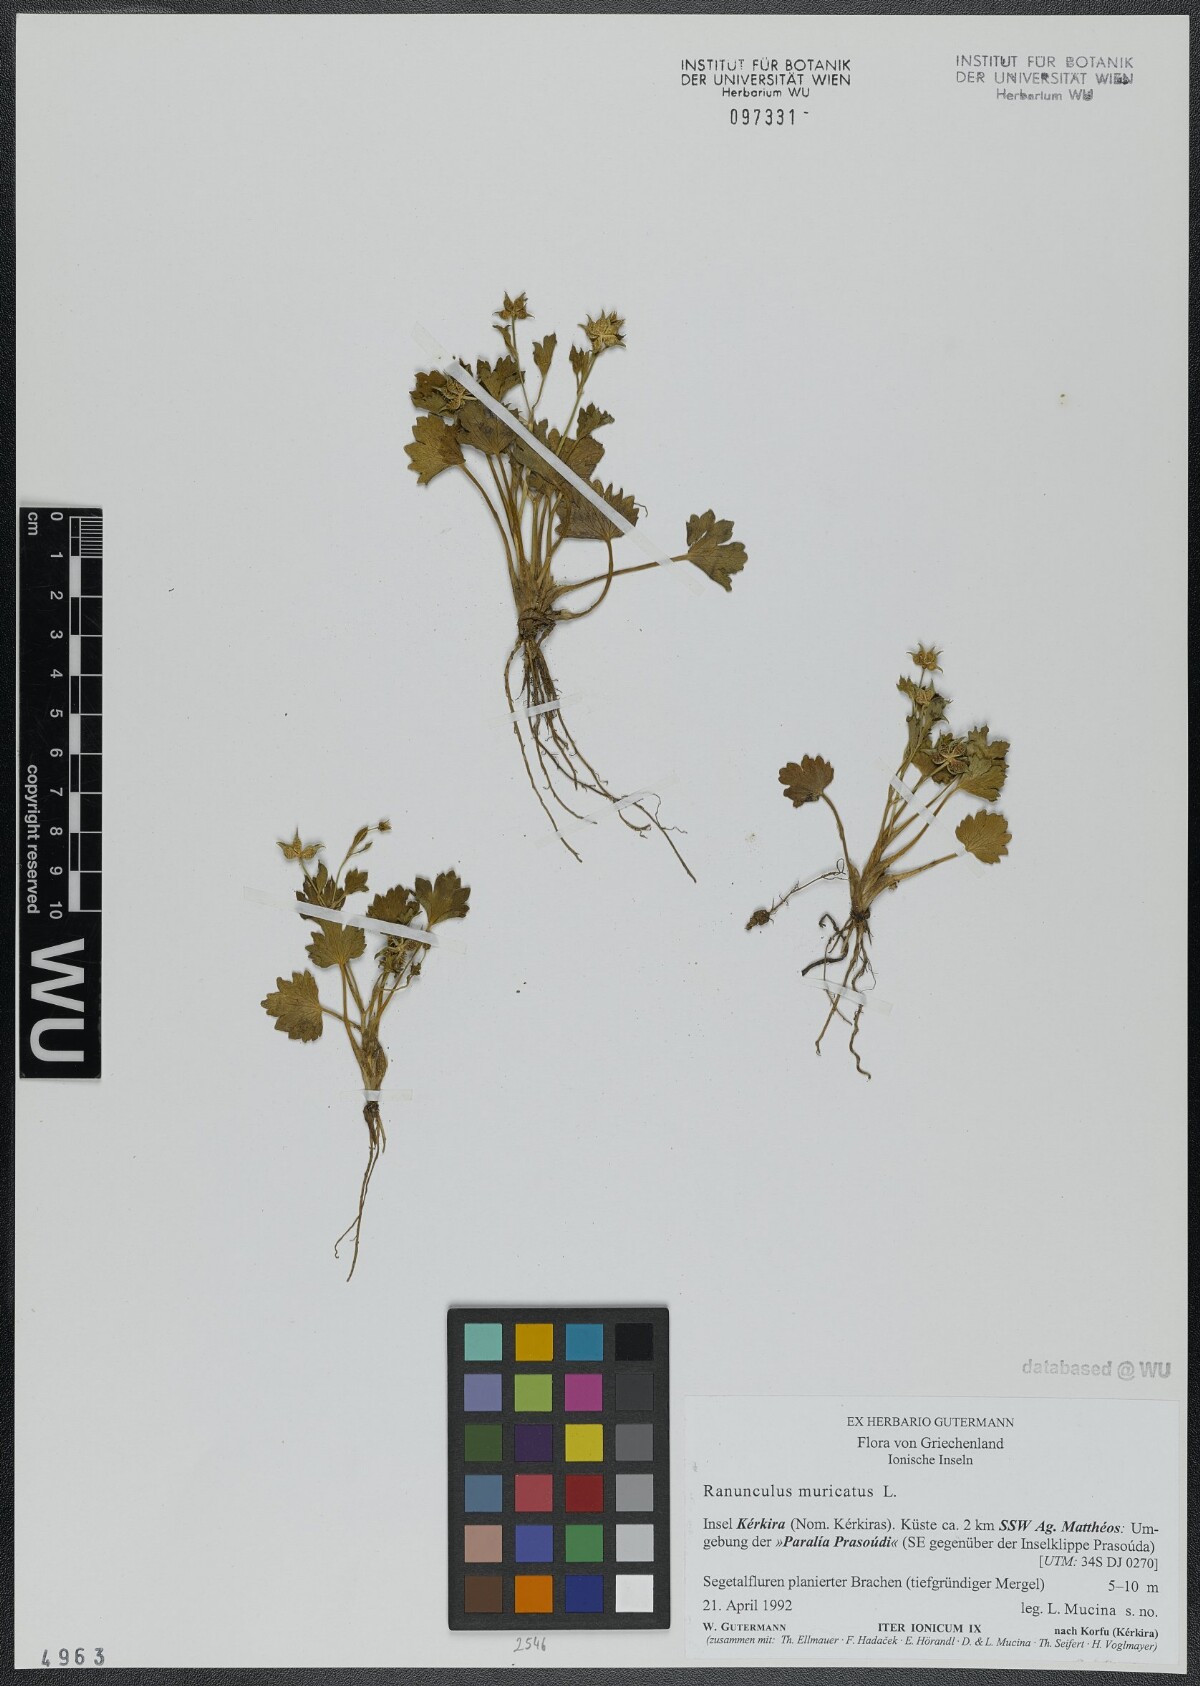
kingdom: Plantae
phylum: Tracheophyta
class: Magnoliopsida
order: Ranunculales
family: Ranunculaceae
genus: Ranunculus
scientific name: Ranunculus muricatus
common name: Rough-fruited buttercup
